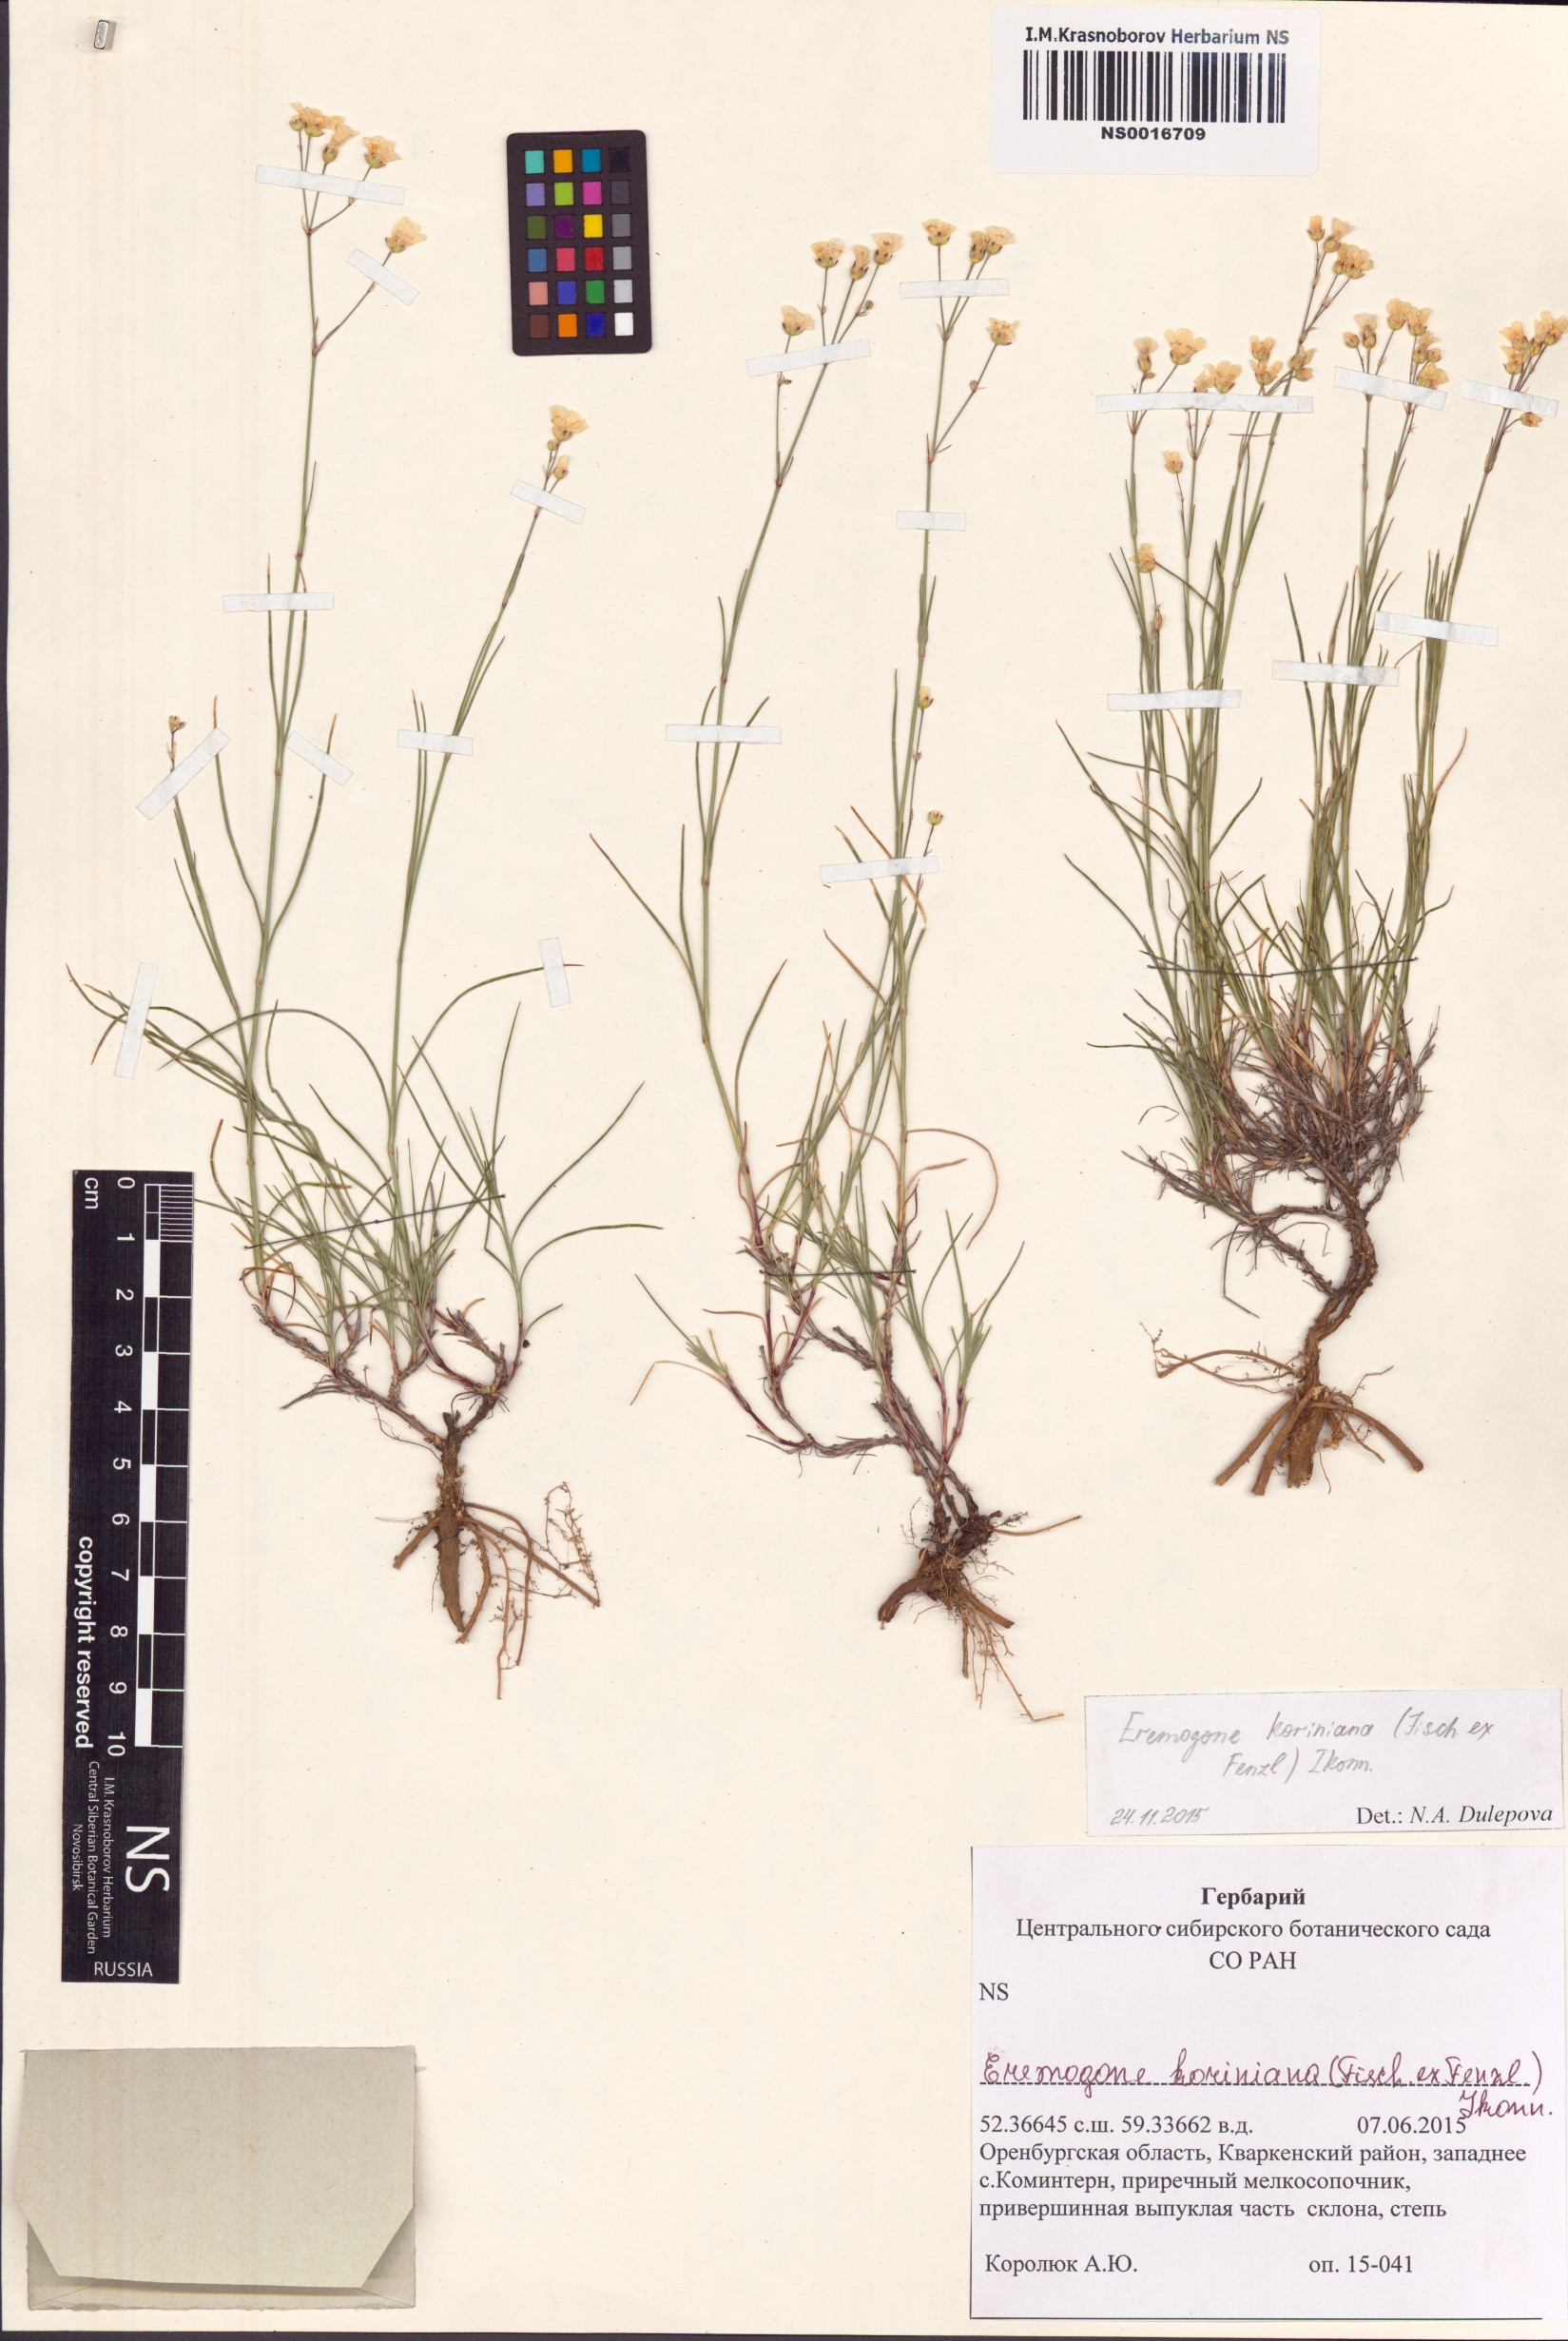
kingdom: Plantae
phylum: Tracheophyta
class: Magnoliopsida
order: Caryophyllales
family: Caryophyllaceae
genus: Eremogone
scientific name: Eremogone saxatilis
